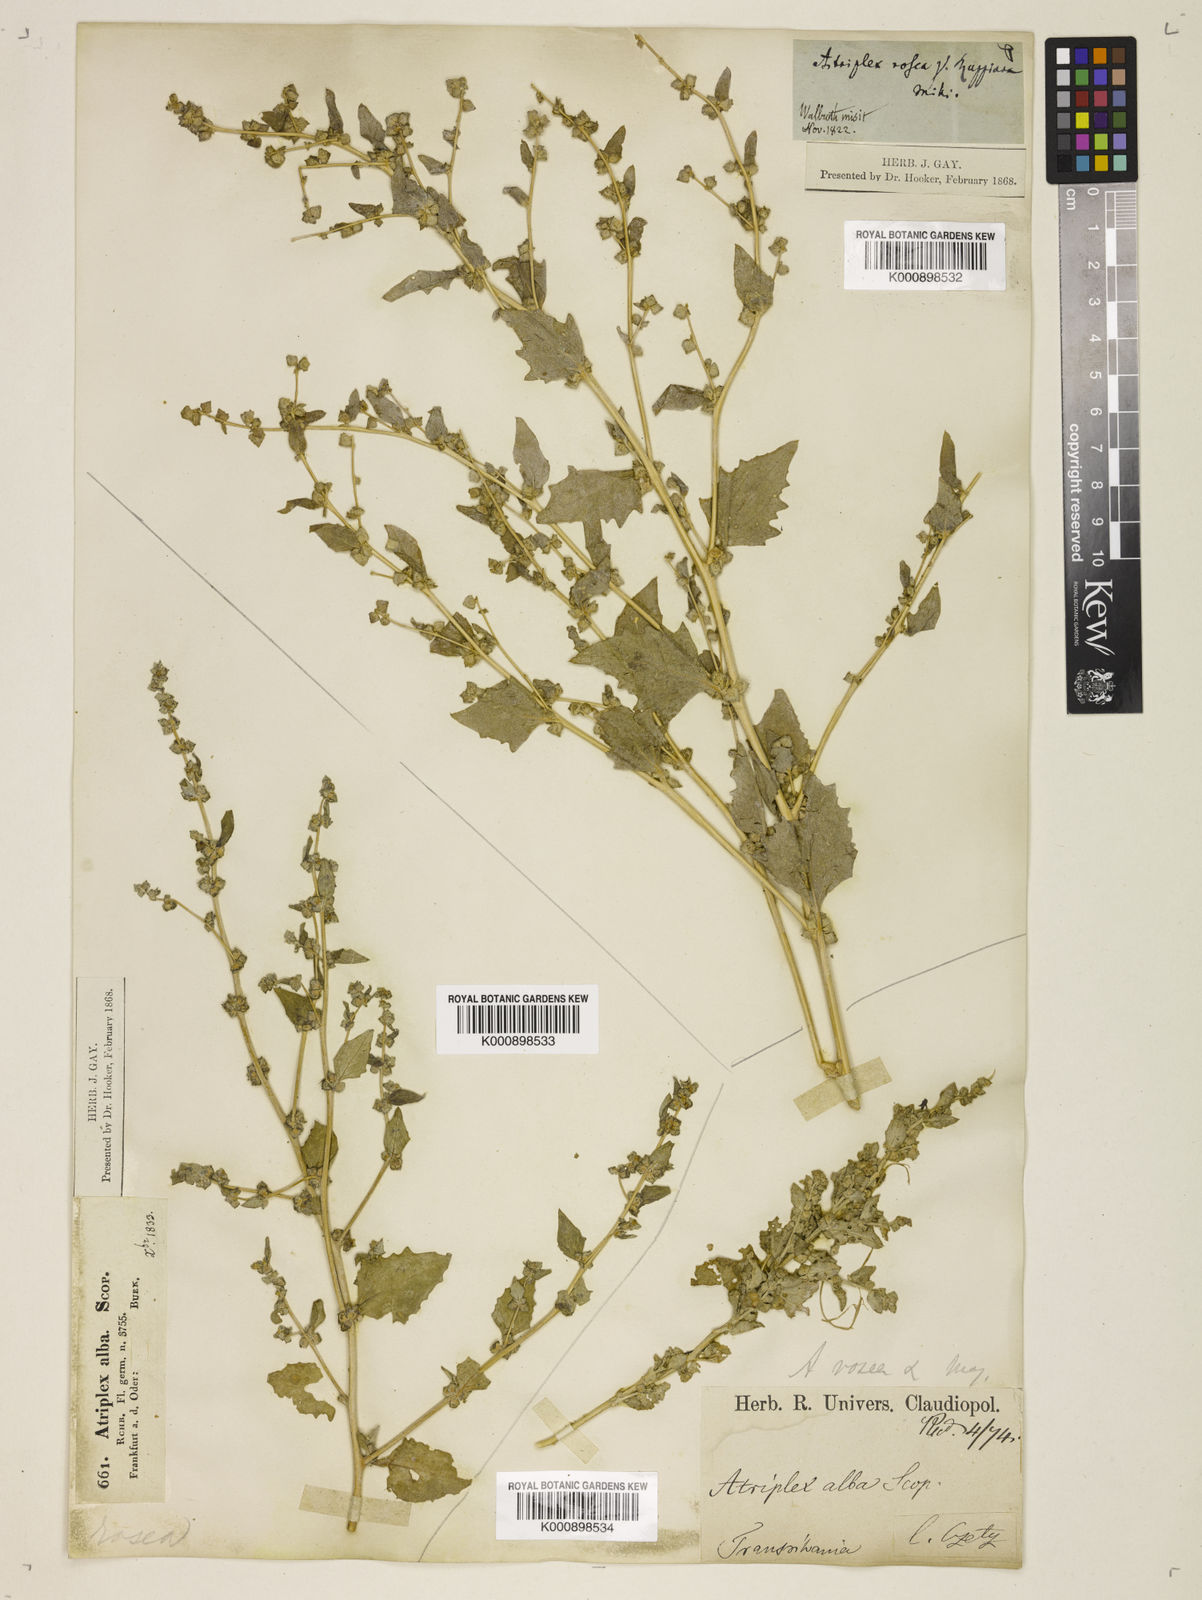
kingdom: Plantae
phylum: Tracheophyta
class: Magnoliopsida
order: Caryophyllales
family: Amaranthaceae
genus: Atriplex
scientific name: Atriplex rosea
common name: Tumbling saltweed
